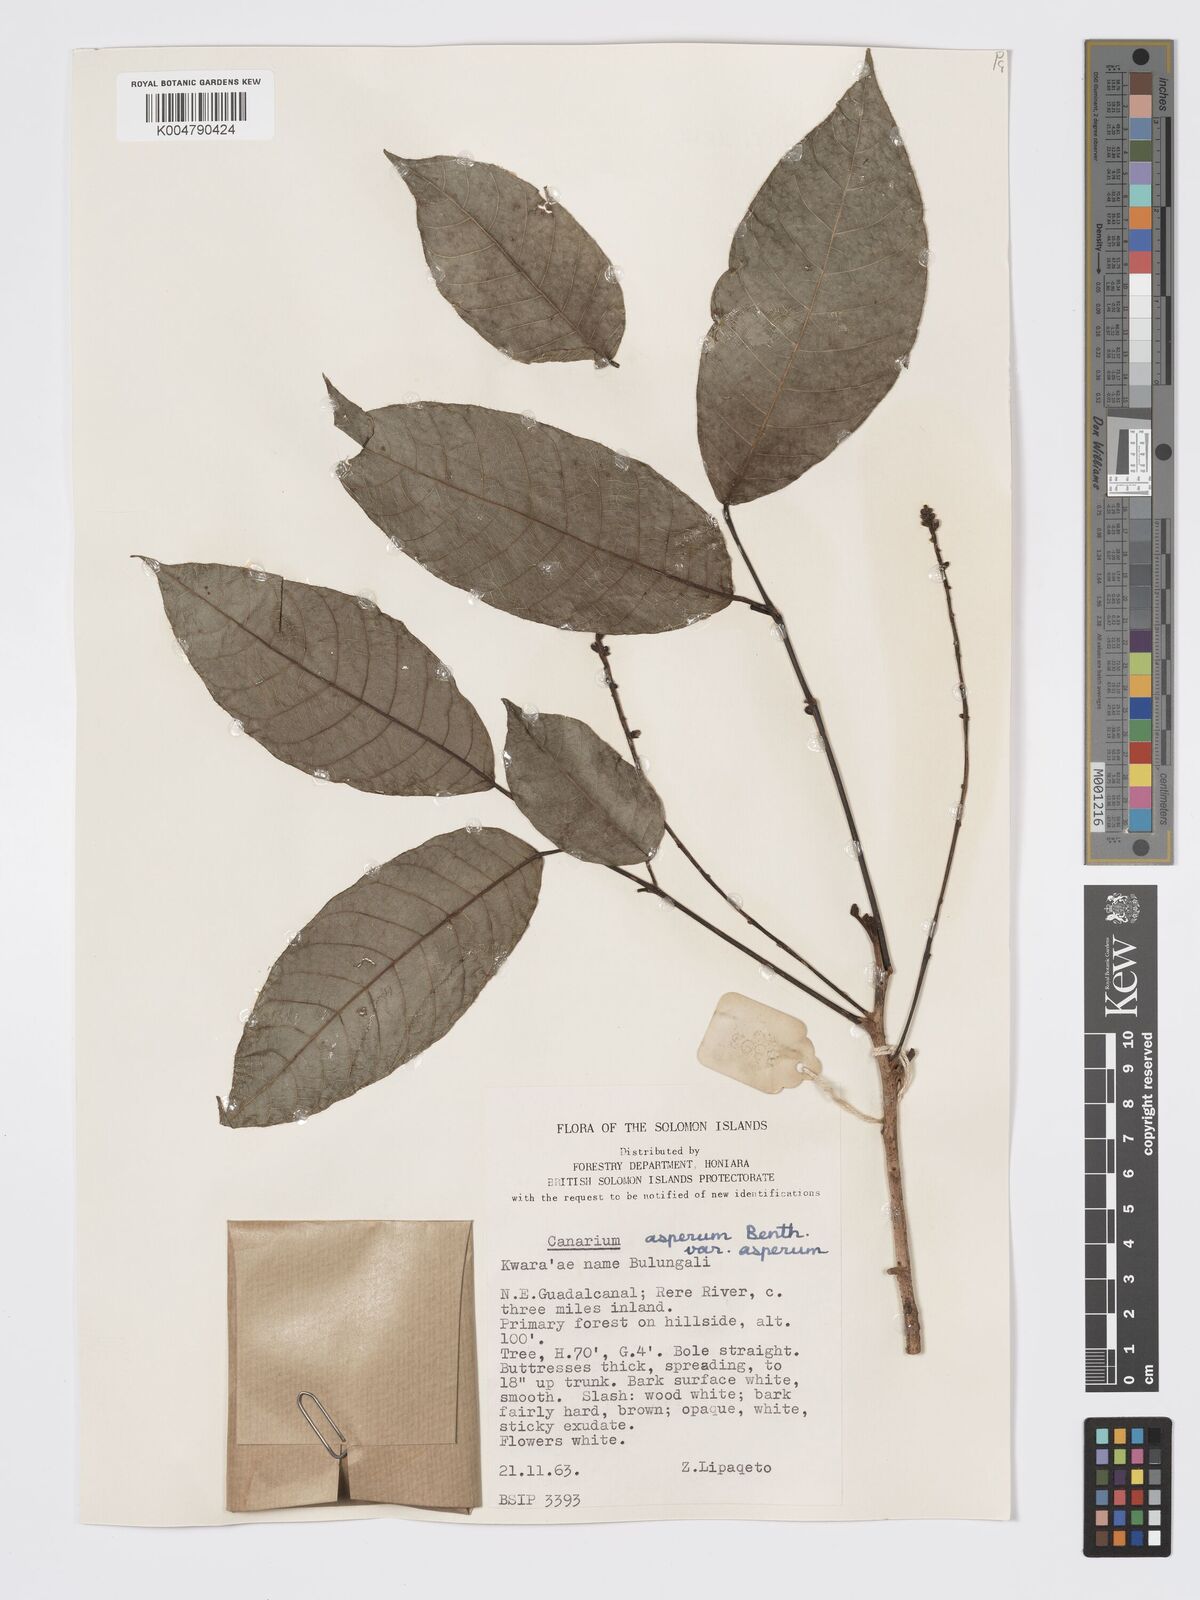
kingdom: Plantae
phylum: Tracheophyta
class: Magnoliopsida
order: Sapindales
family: Burseraceae
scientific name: Burseraceae
